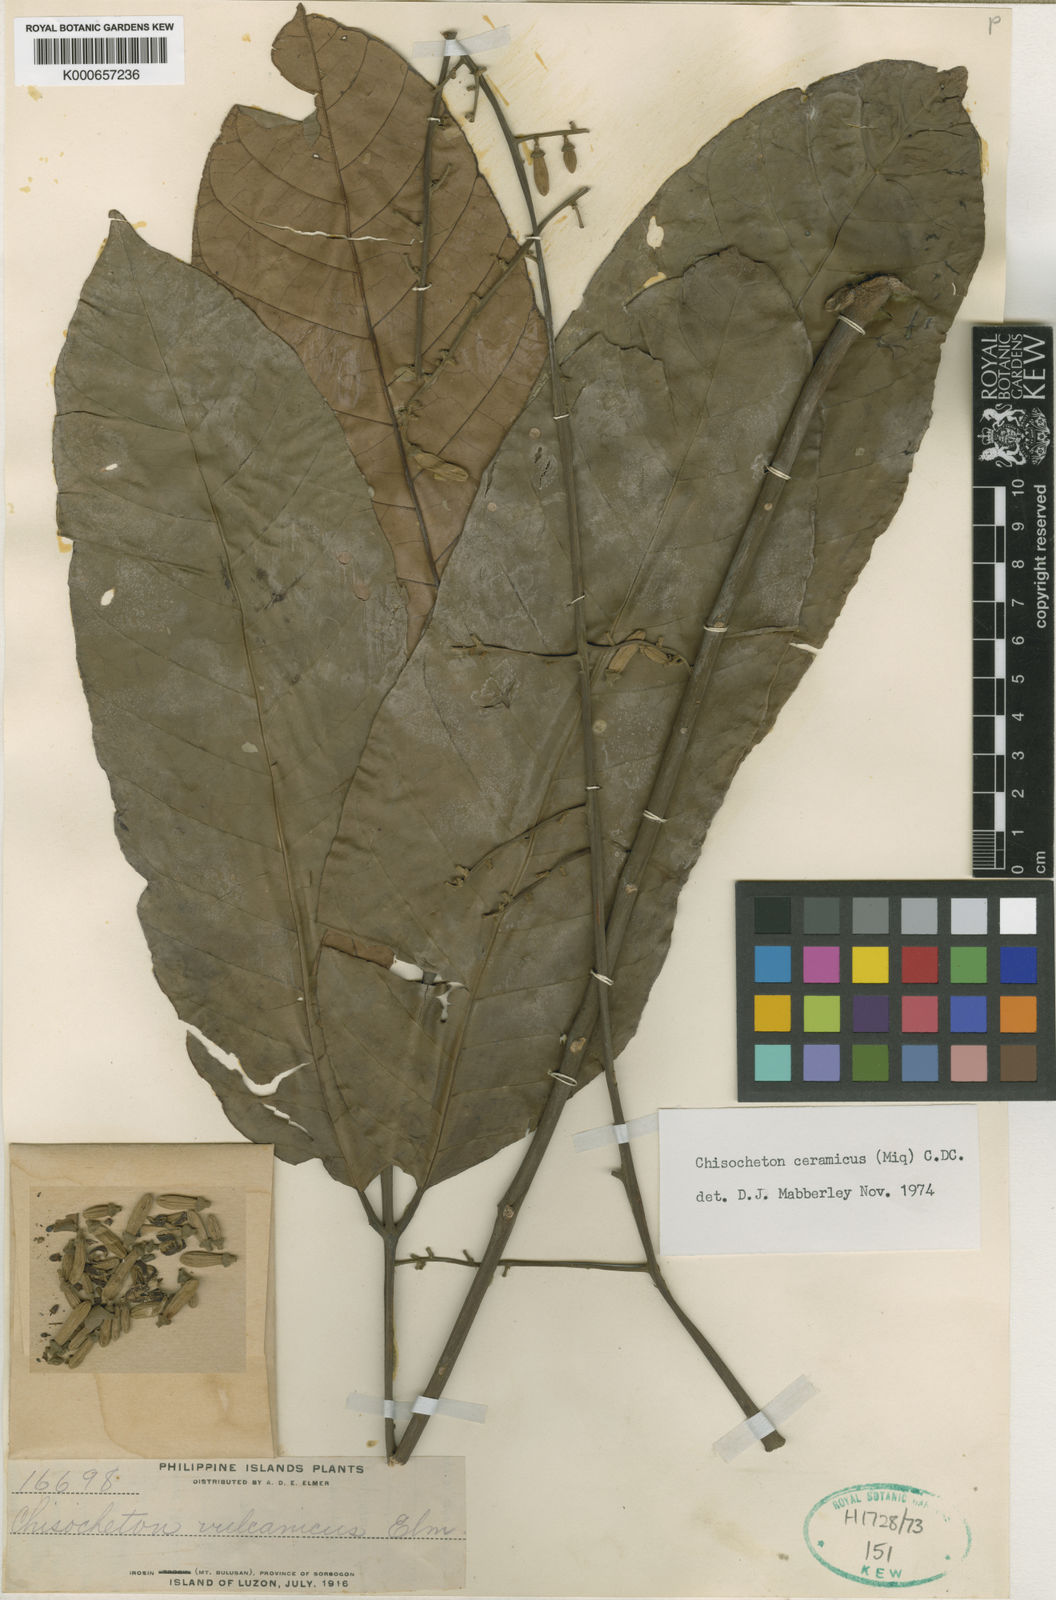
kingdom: Plantae
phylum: Tracheophyta
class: Magnoliopsida
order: Sapindales
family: Meliaceae
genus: Chisocheton
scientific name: Chisocheton ceramicus
